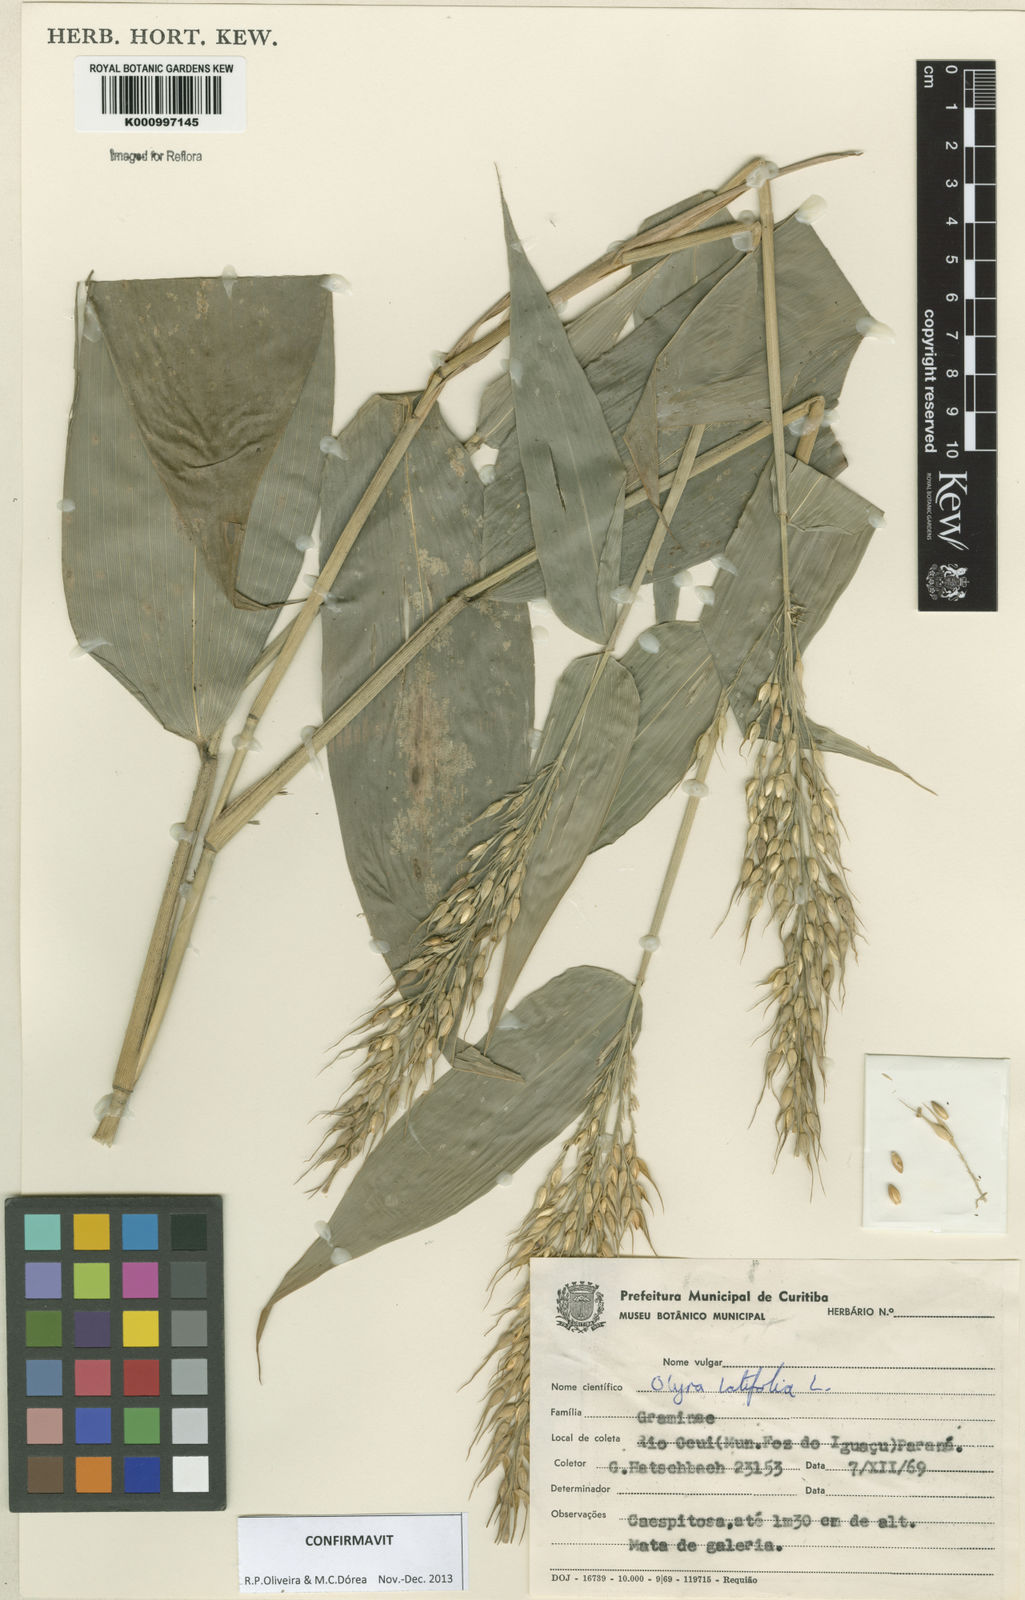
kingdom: Plantae
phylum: Tracheophyta
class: Liliopsida
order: Poales
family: Poaceae
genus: Olyra
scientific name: Olyra latifolia
